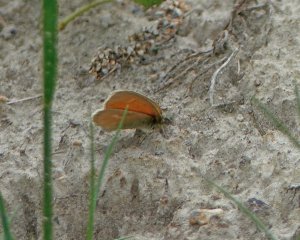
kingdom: Animalia
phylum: Arthropoda
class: Insecta
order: Lepidoptera
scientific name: Lepidoptera
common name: Butterflies
